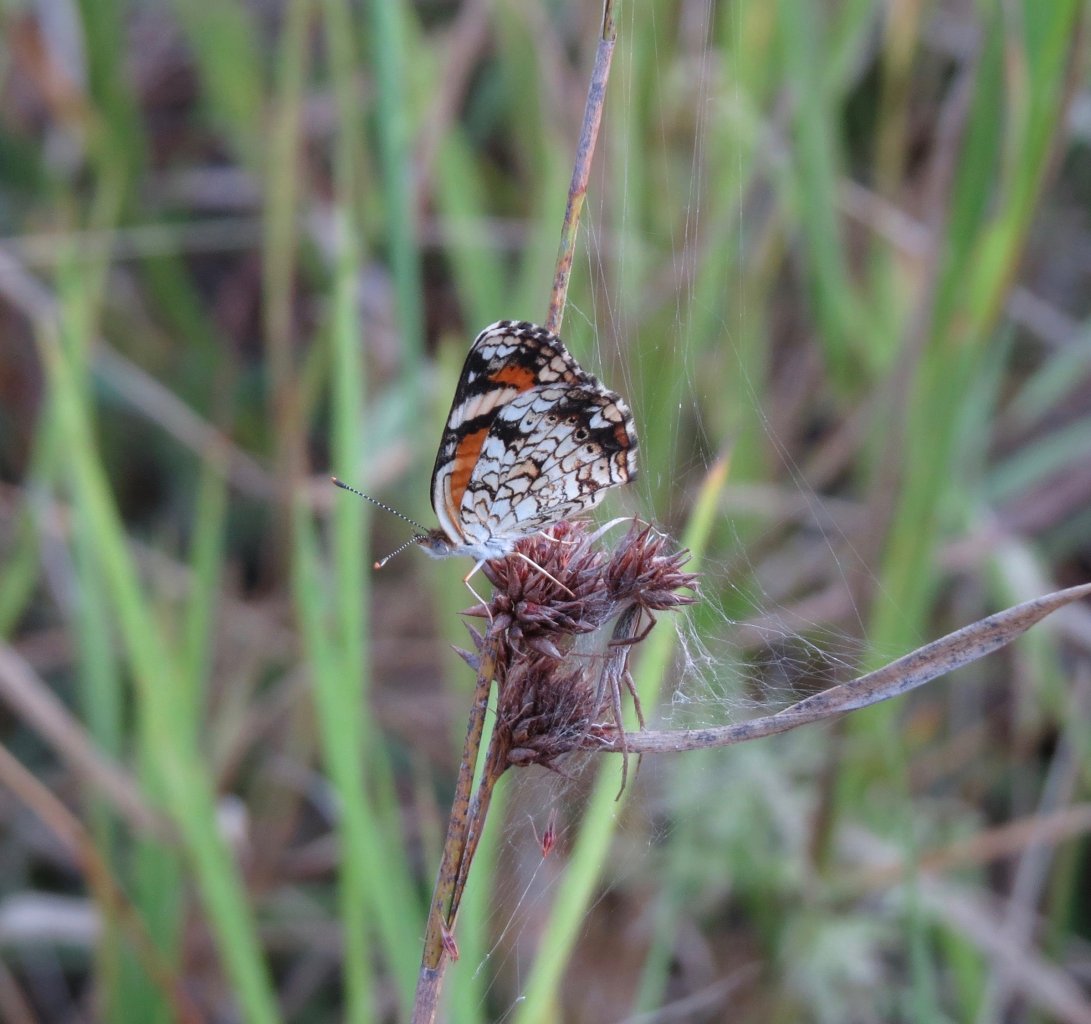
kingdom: Animalia
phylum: Arthropoda
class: Insecta
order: Lepidoptera
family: Nymphalidae
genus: Phyciodes
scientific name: Phyciodes phaon
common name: Phaon Crescent
